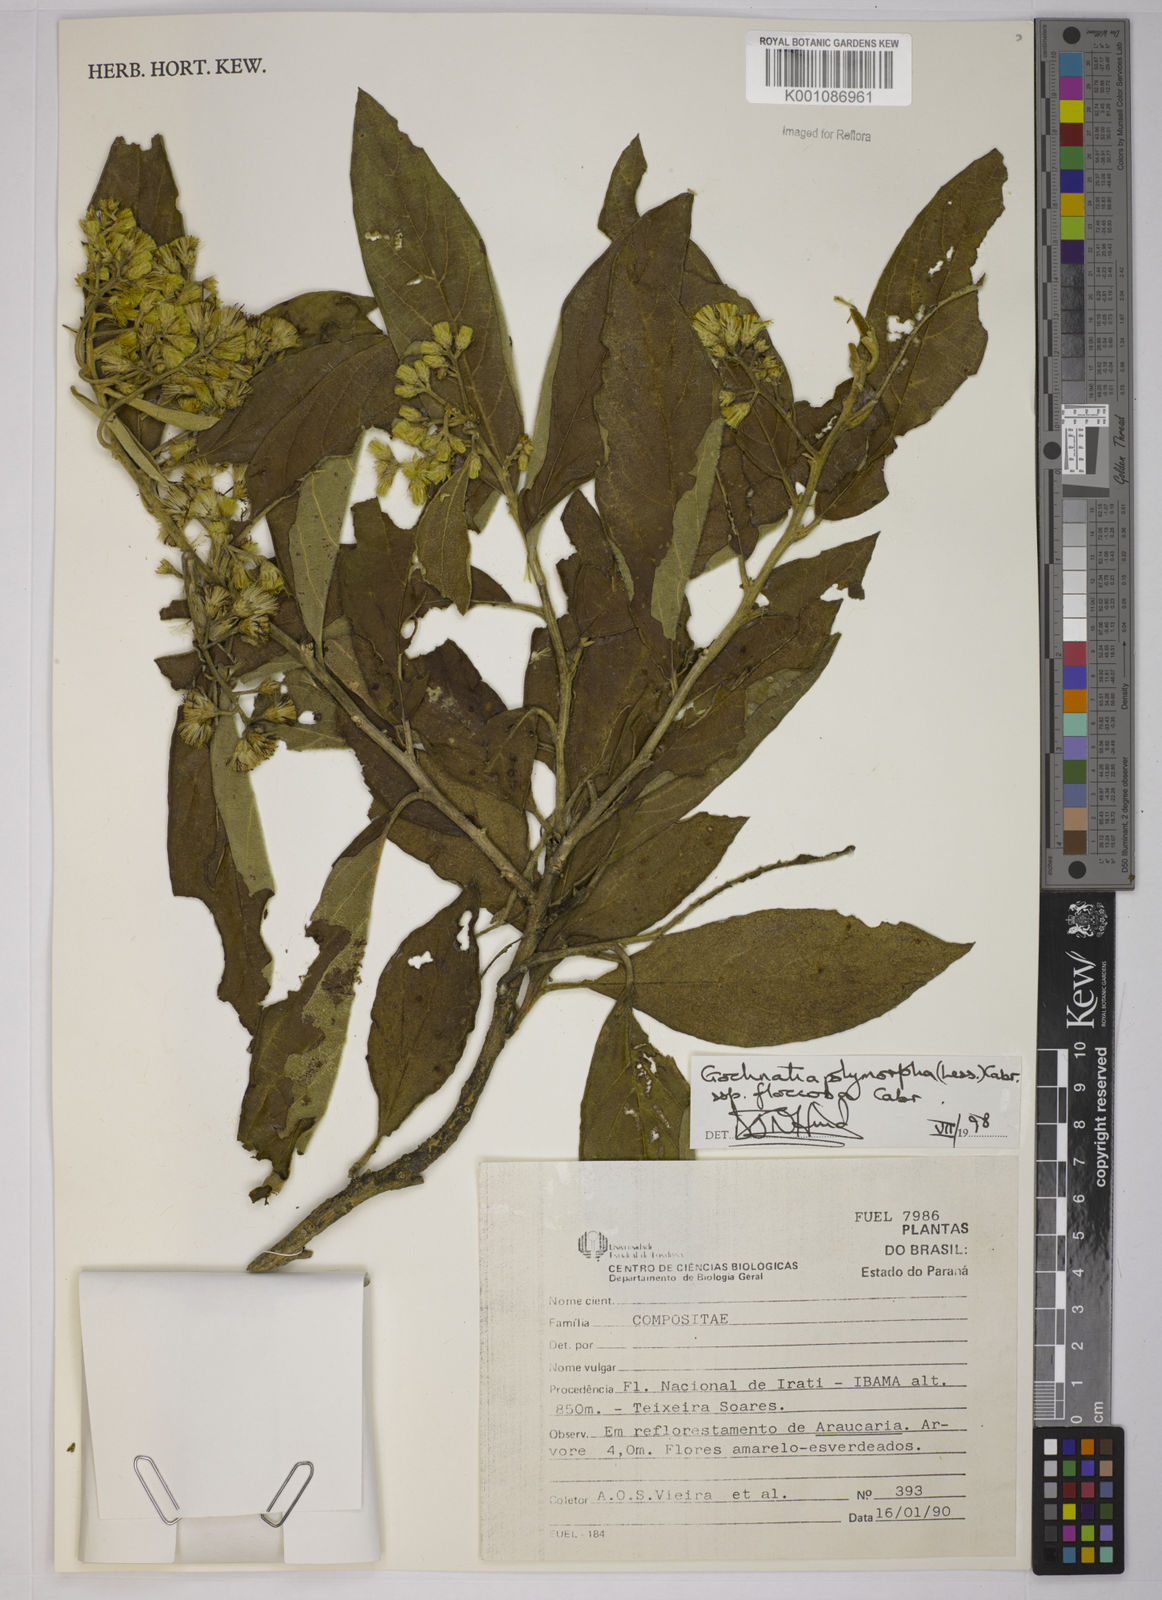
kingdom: Plantae
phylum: Tracheophyta
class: Magnoliopsida
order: Asterales
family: Asteraceae
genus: Moquiniastrum
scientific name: Moquiniastrum polymorphum
